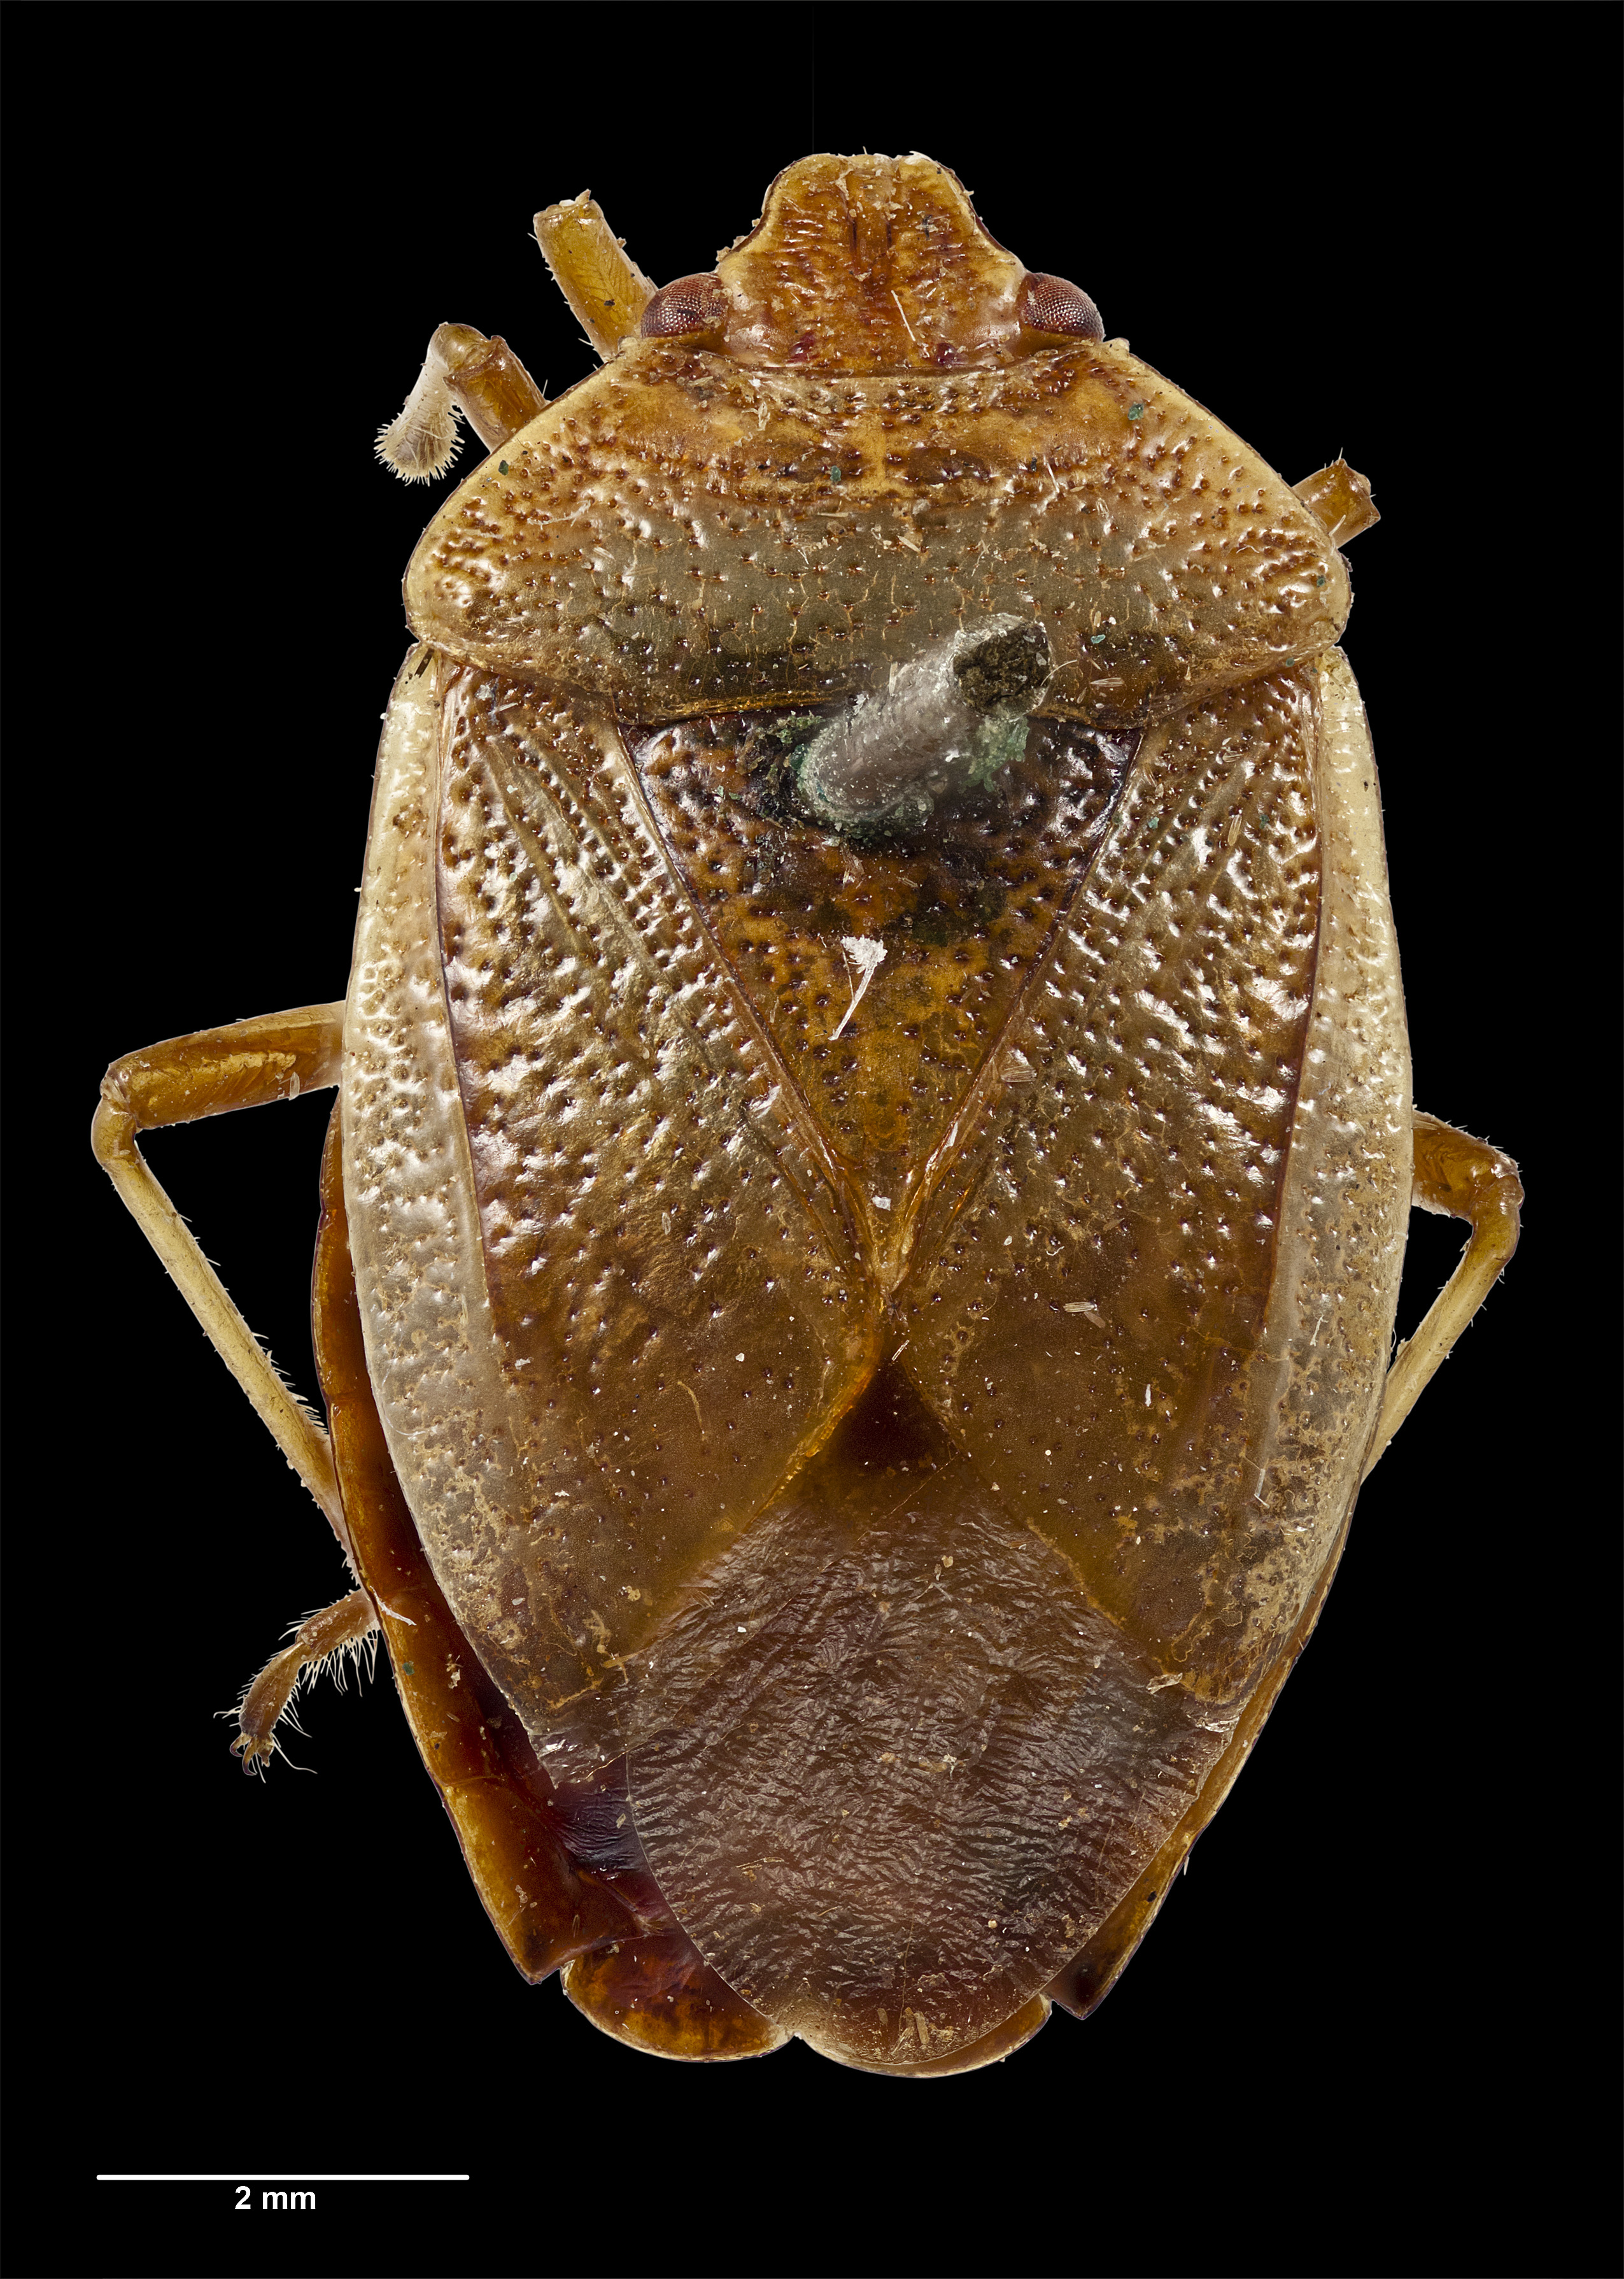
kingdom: Animalia
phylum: Arthropoda
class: Insecta
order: Hemiptera
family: Acanthosomatidae
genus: Rhopalimorpha
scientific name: Rhopalimorpha alpina
